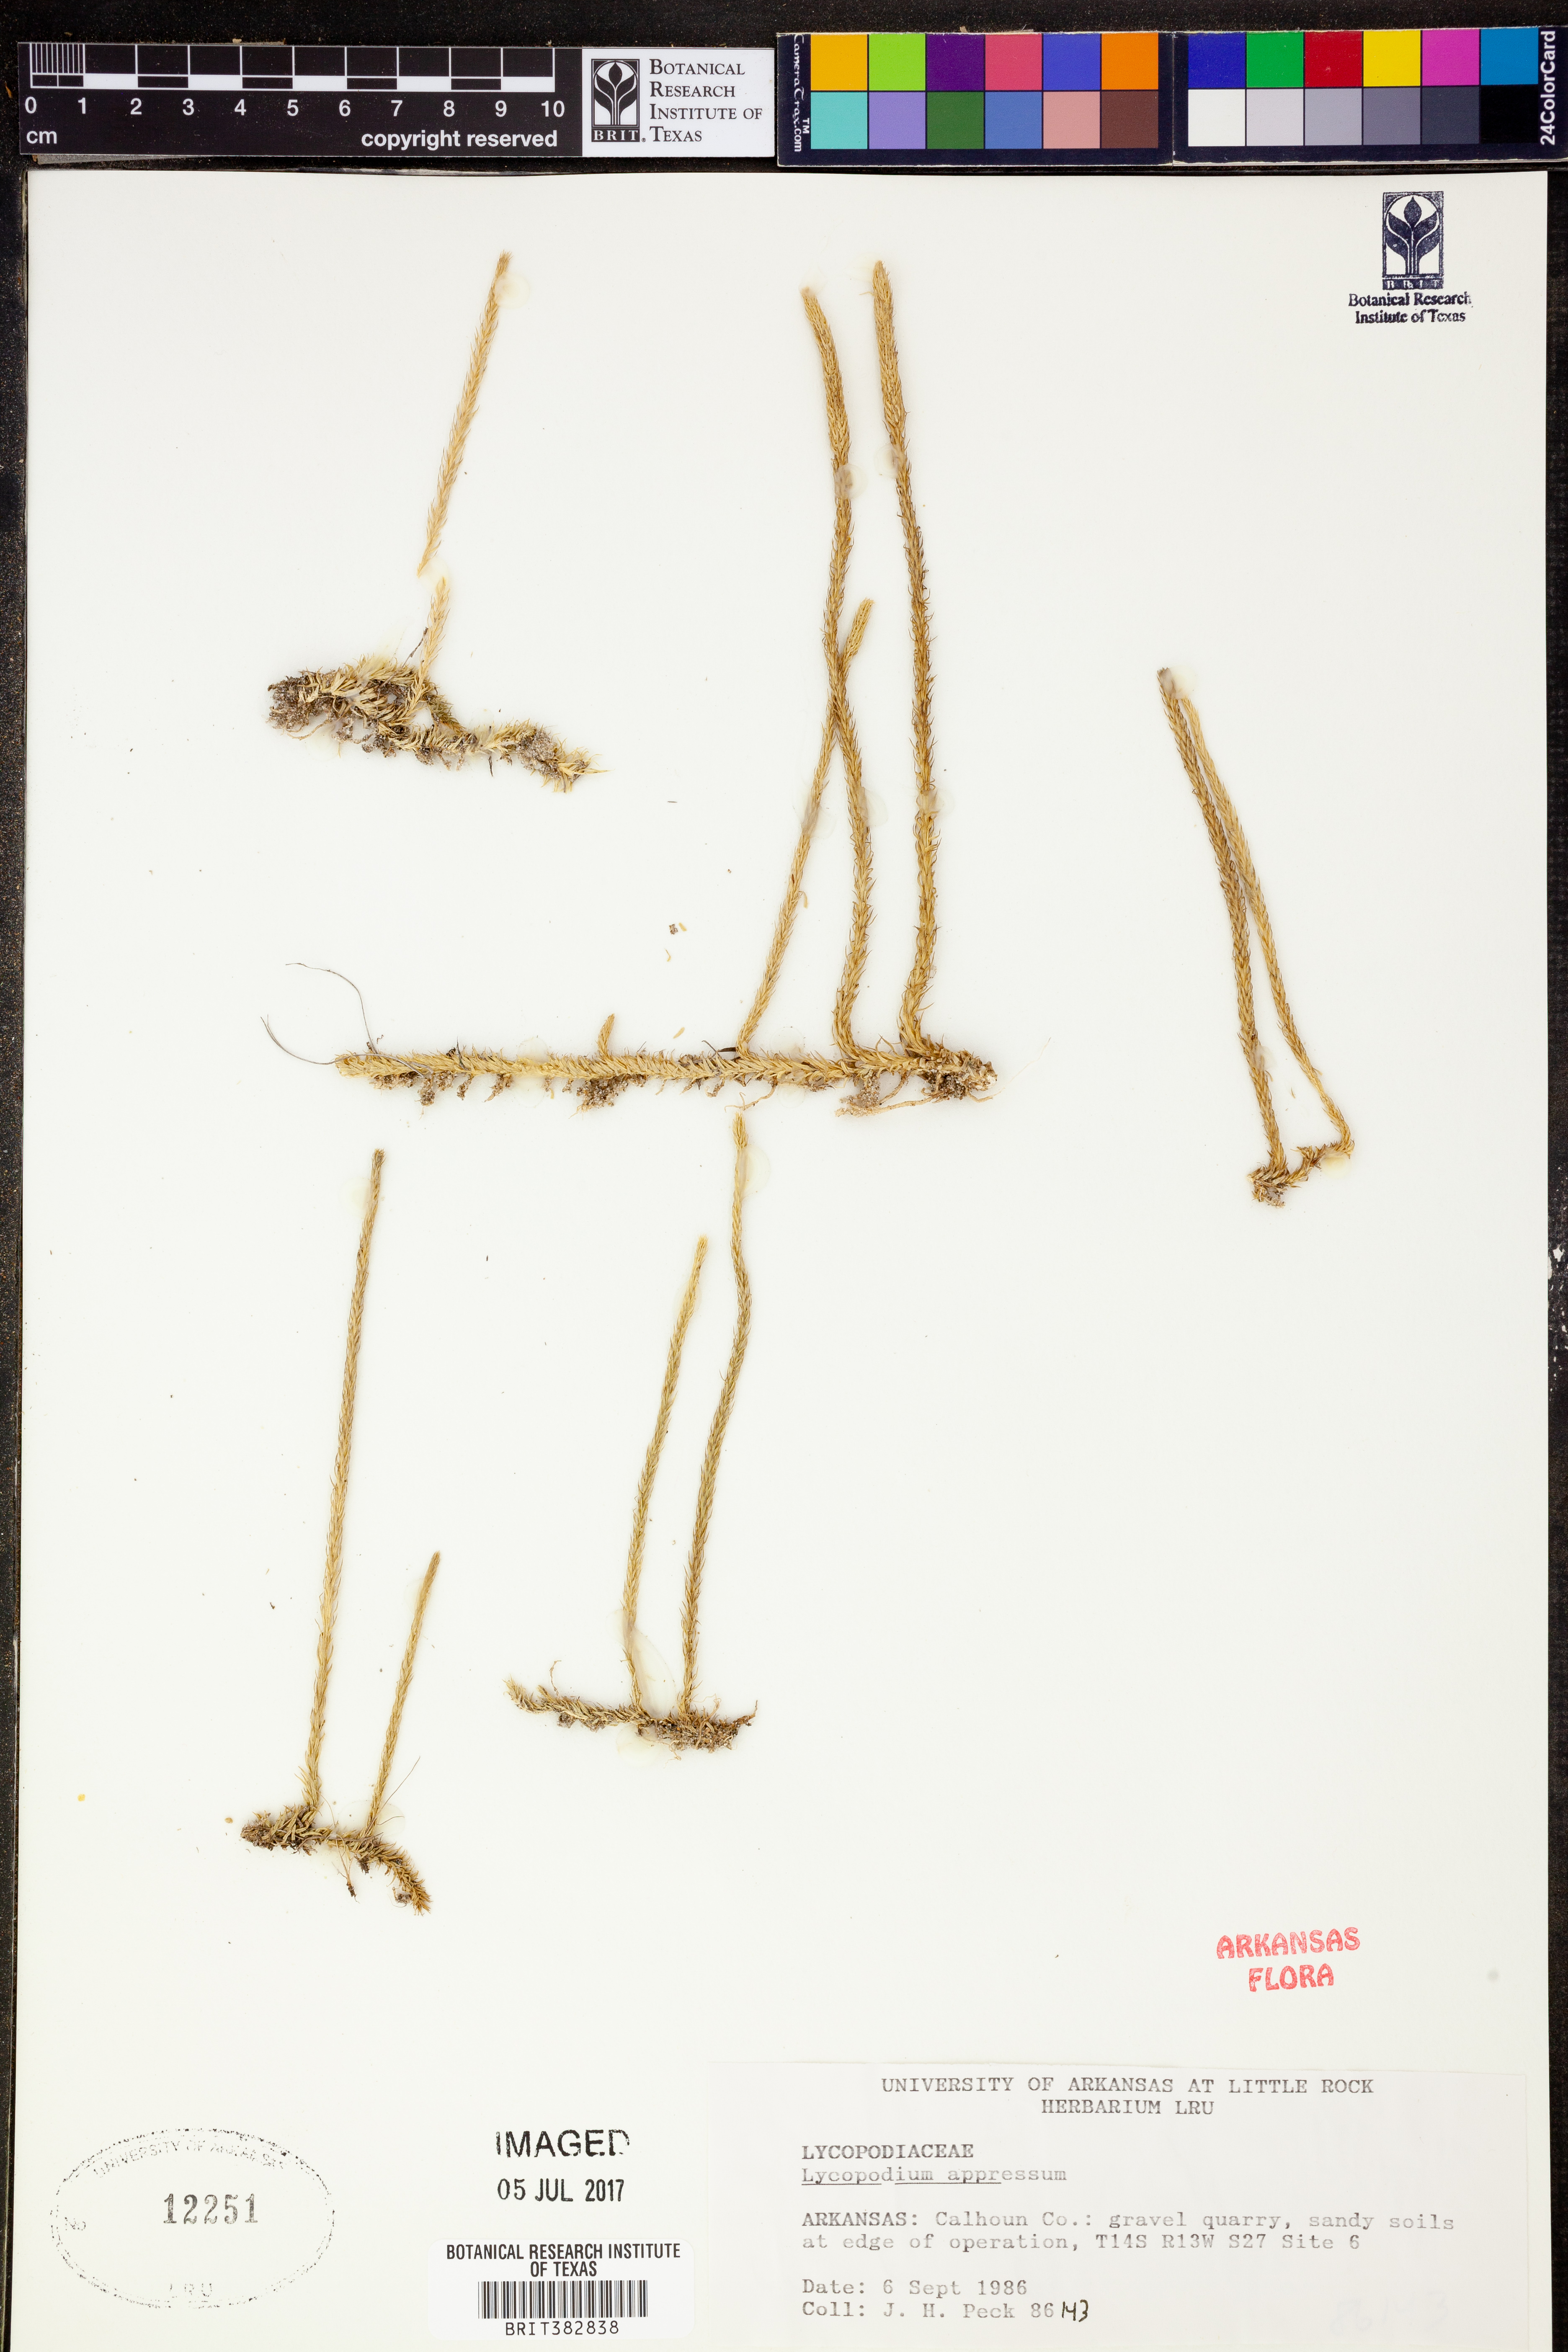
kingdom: Plantae
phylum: Tracheophyta
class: Lycopodiopsida
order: Lycopodiales
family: Lycopodiaceae
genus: Lycopodiella
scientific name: Lycopodiella appressa
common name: Appressed bog clubmoss
